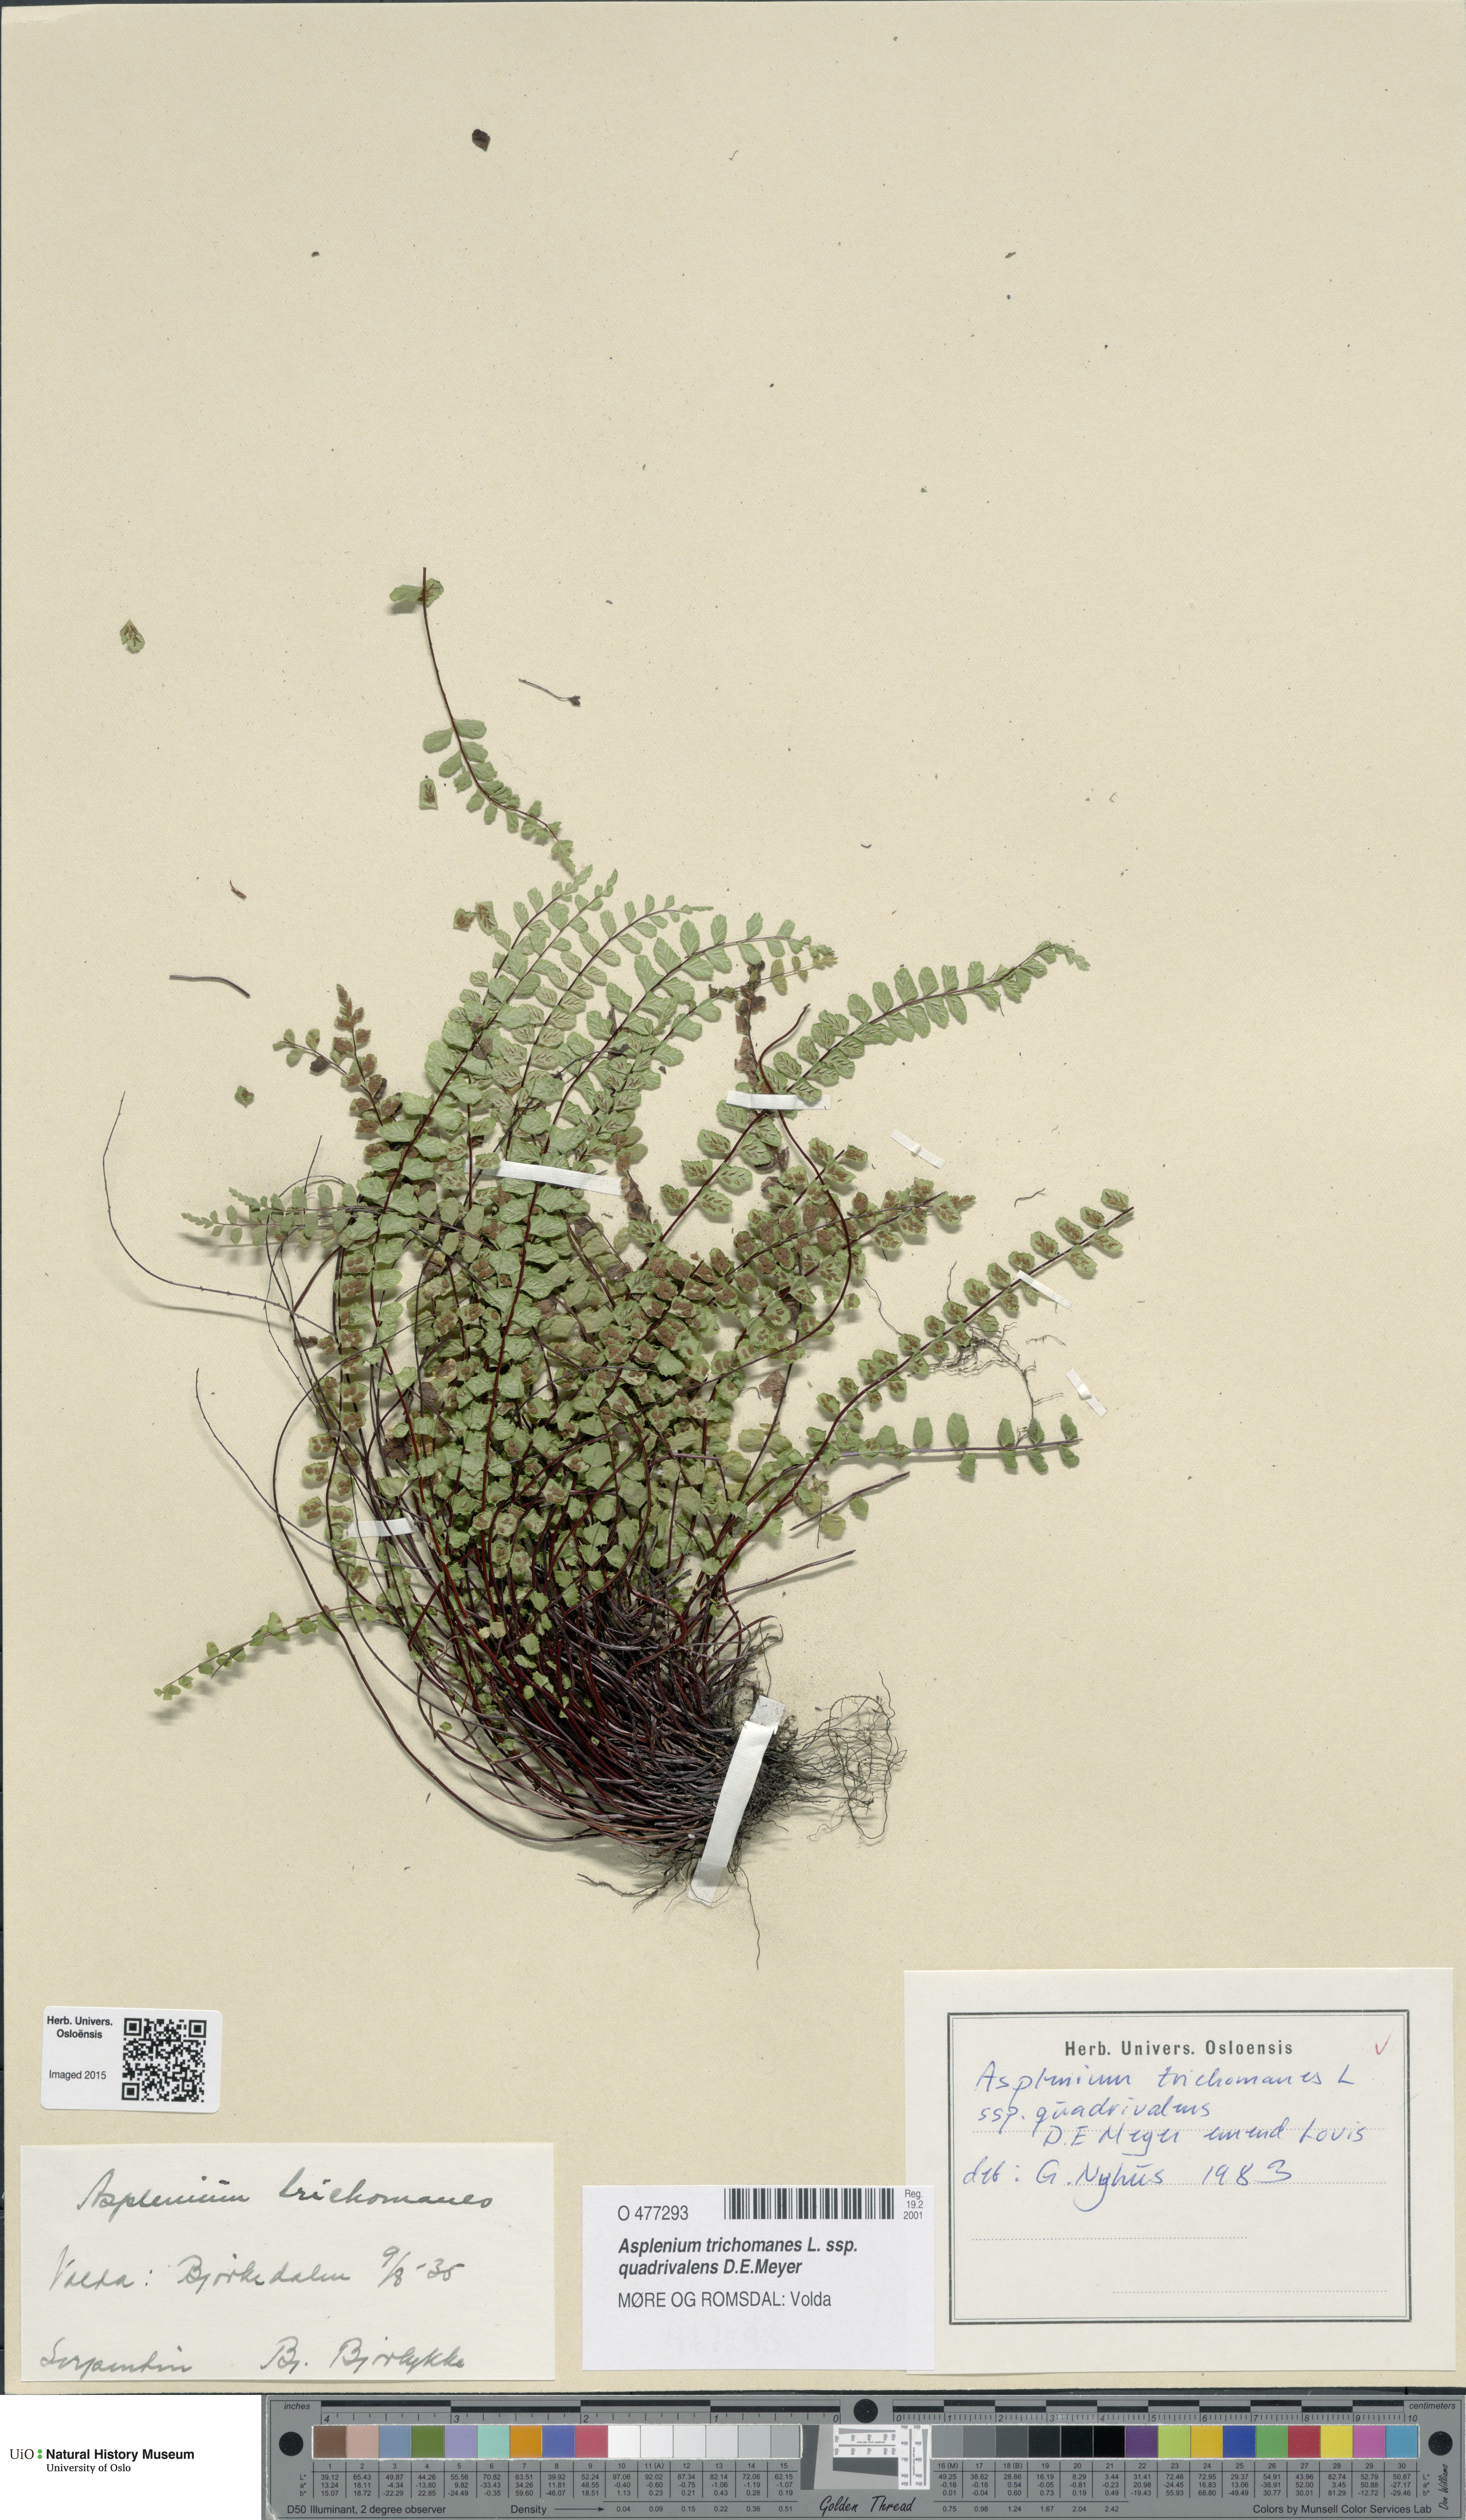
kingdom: Plantae
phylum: Tracheophyta
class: Polypodiopsida
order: Polypodiales
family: Aspleniaceae
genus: Asplenium
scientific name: Asplenium quadrivalens
